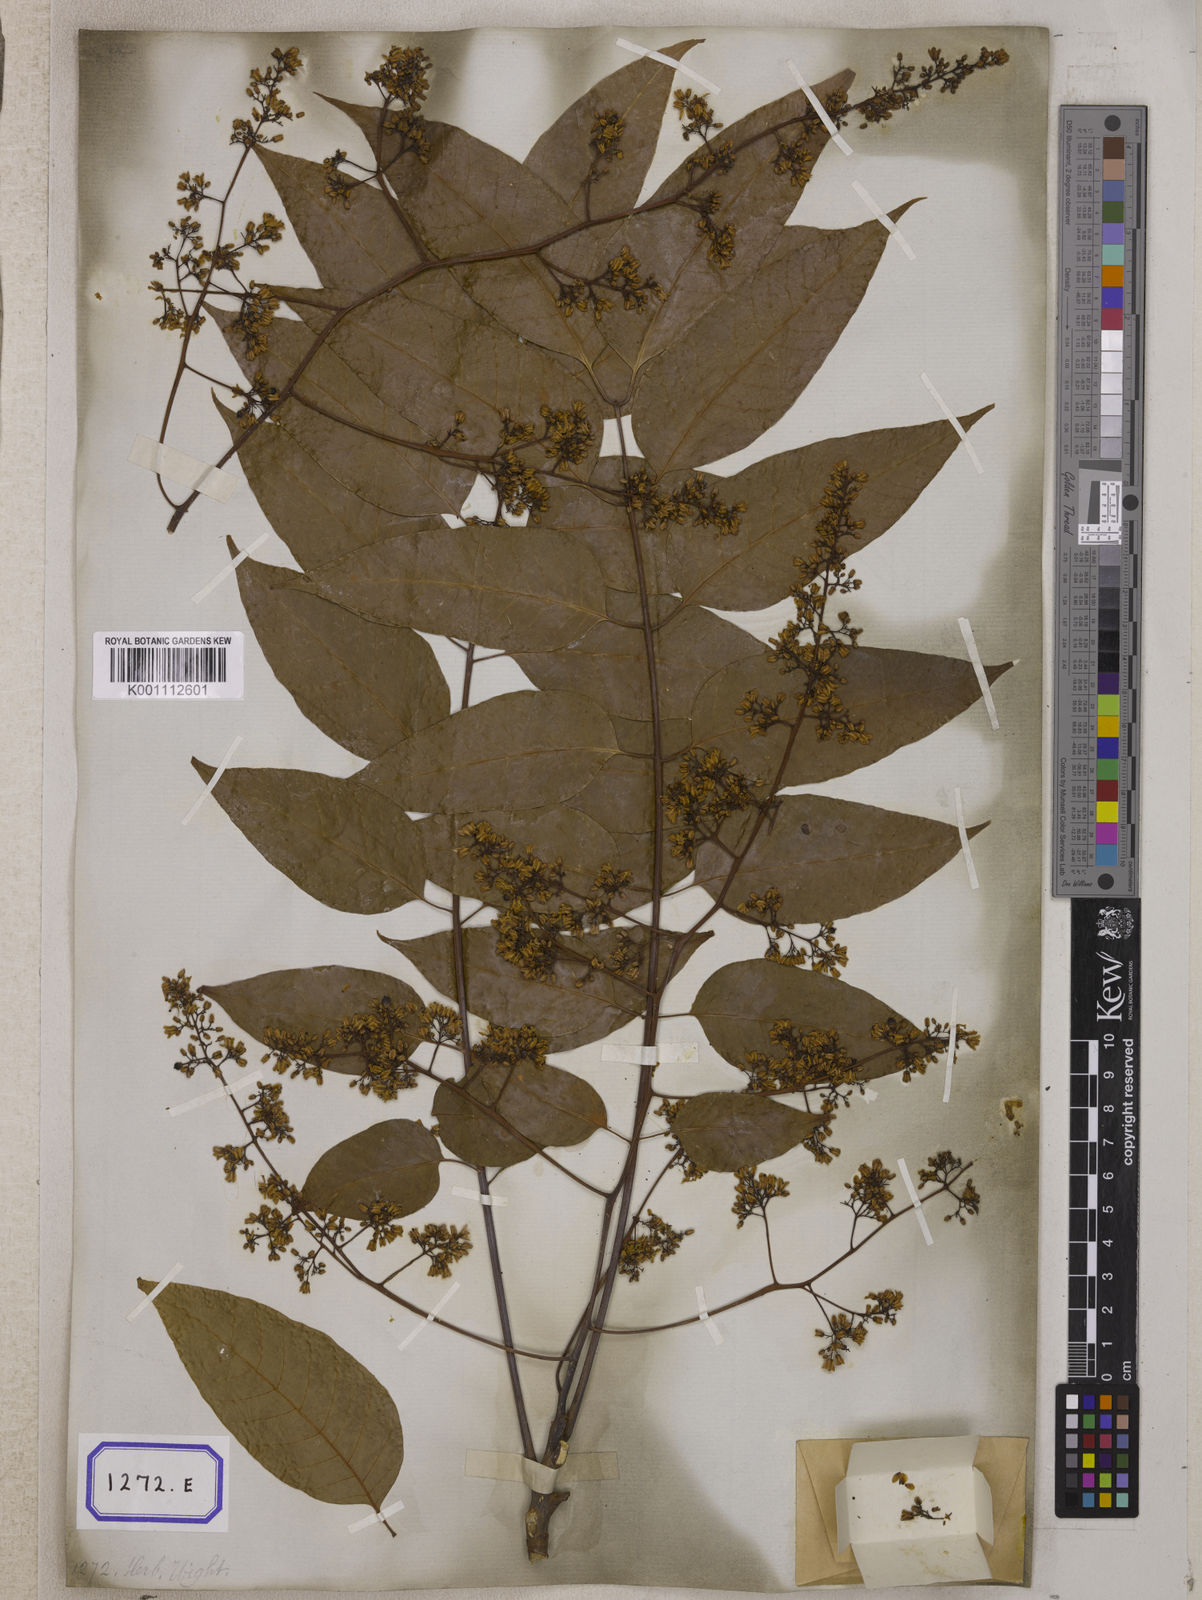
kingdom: Plantae
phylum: Tracheophyta
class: Magnoliopsida
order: Sapindales
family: Meliaceae
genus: Cedrela
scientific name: Cedrela
